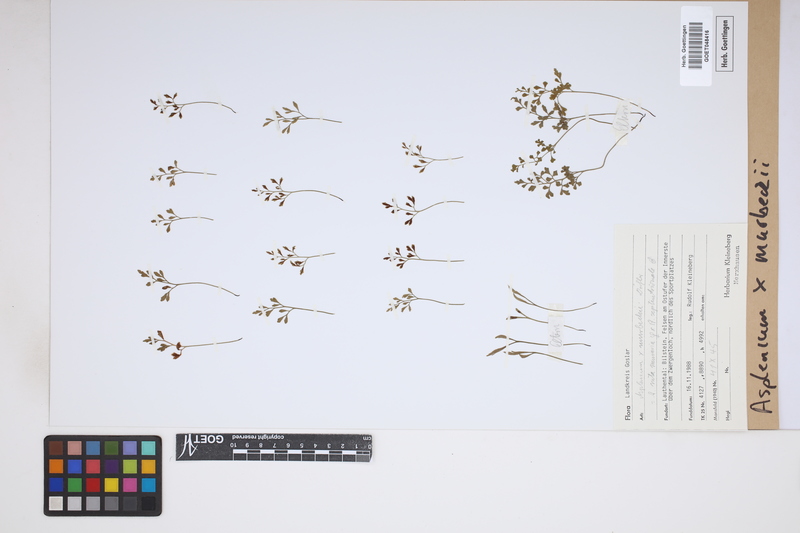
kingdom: Plantae
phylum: Tracheophyta
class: Polypodiopsida
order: Polypodiales
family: Aspleniaceae
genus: Asplenium
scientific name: Asplenium murbeckii
